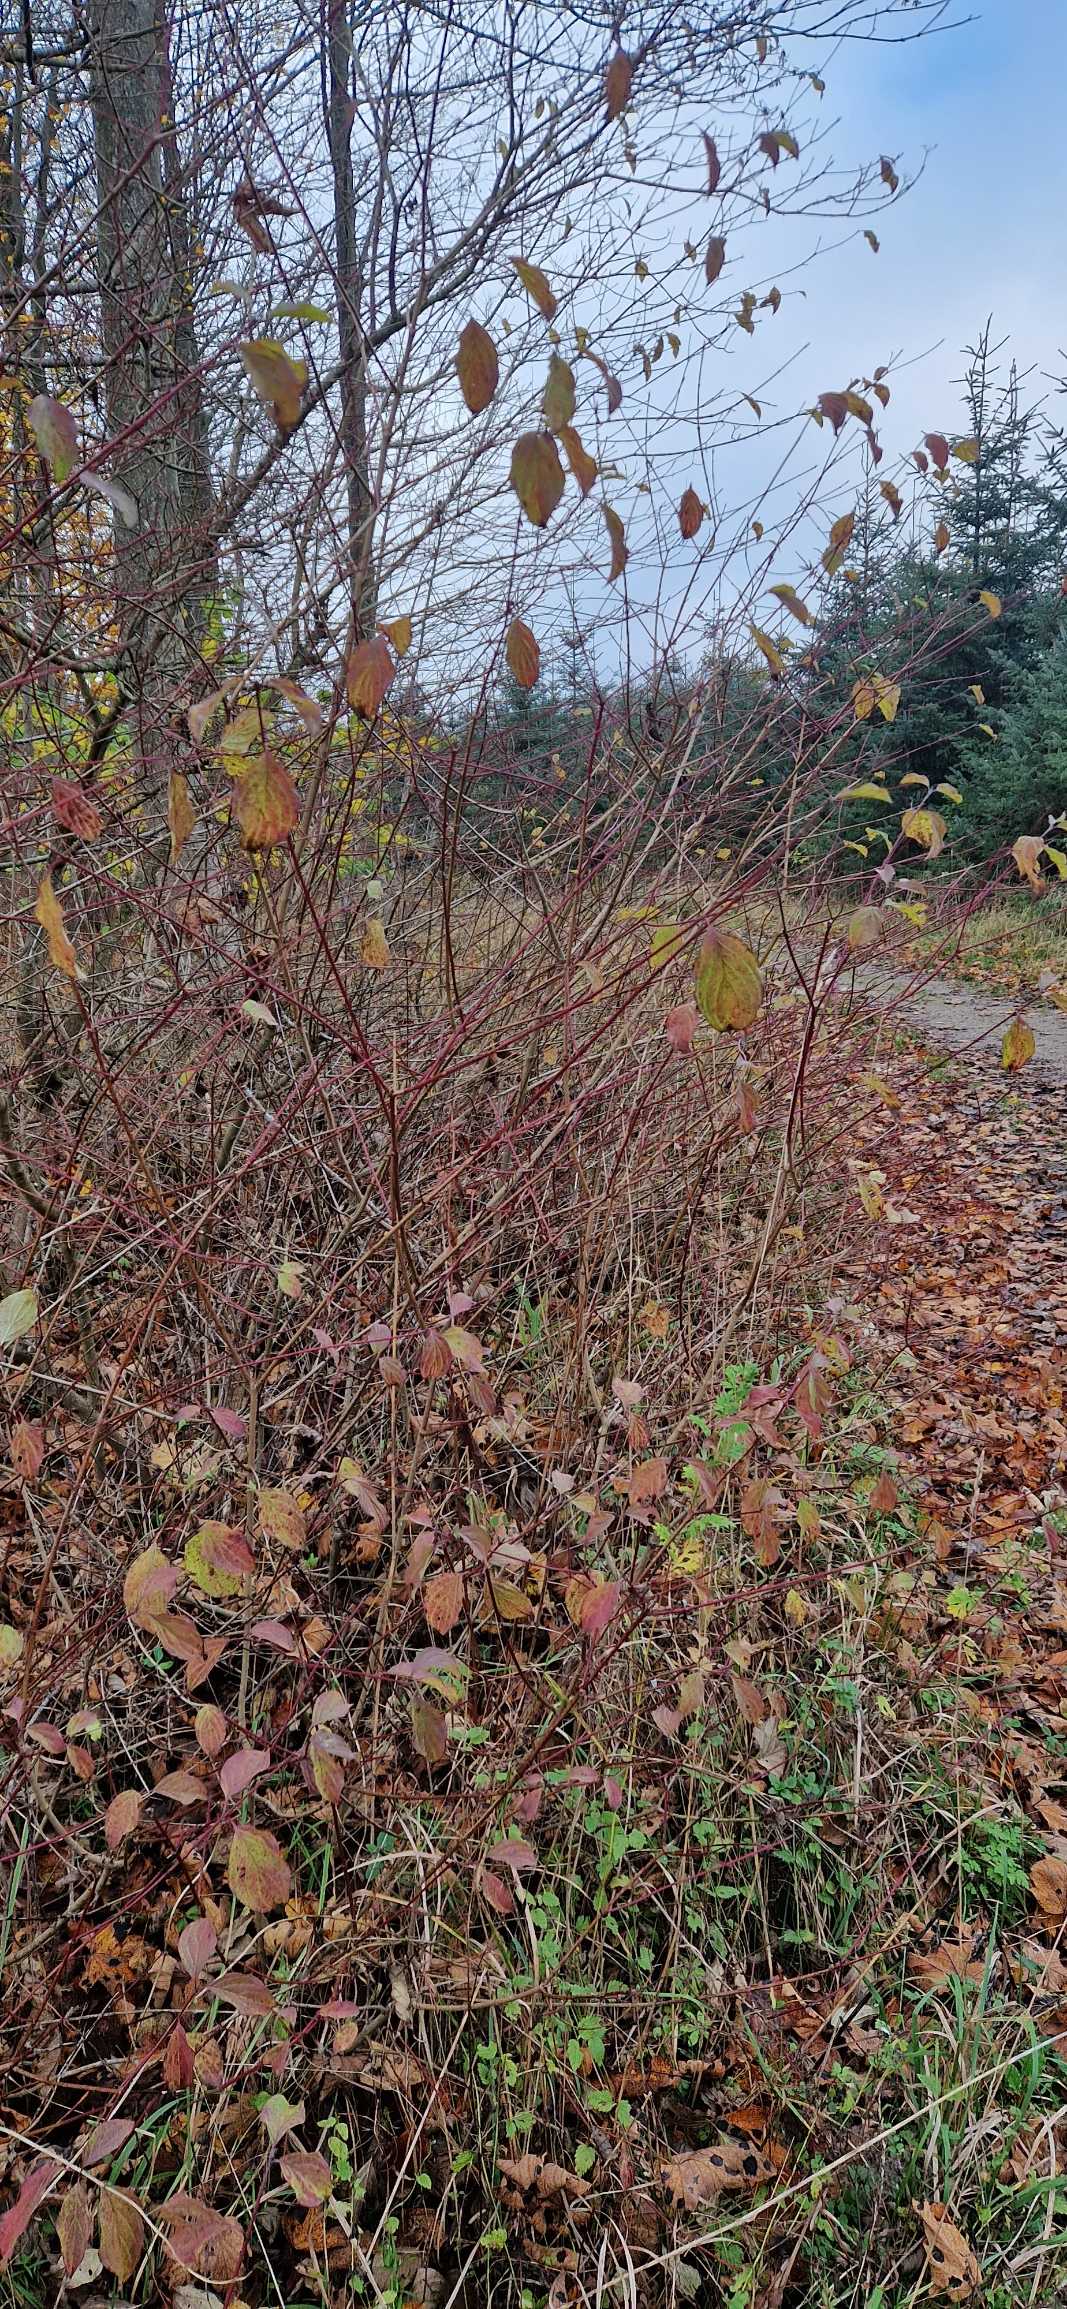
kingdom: Plantae
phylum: Tracheophyta
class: Magnoliopsida
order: Cornales
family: Cornaceae
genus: Cornus
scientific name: Cornus sanguinea
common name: Rød kornel
